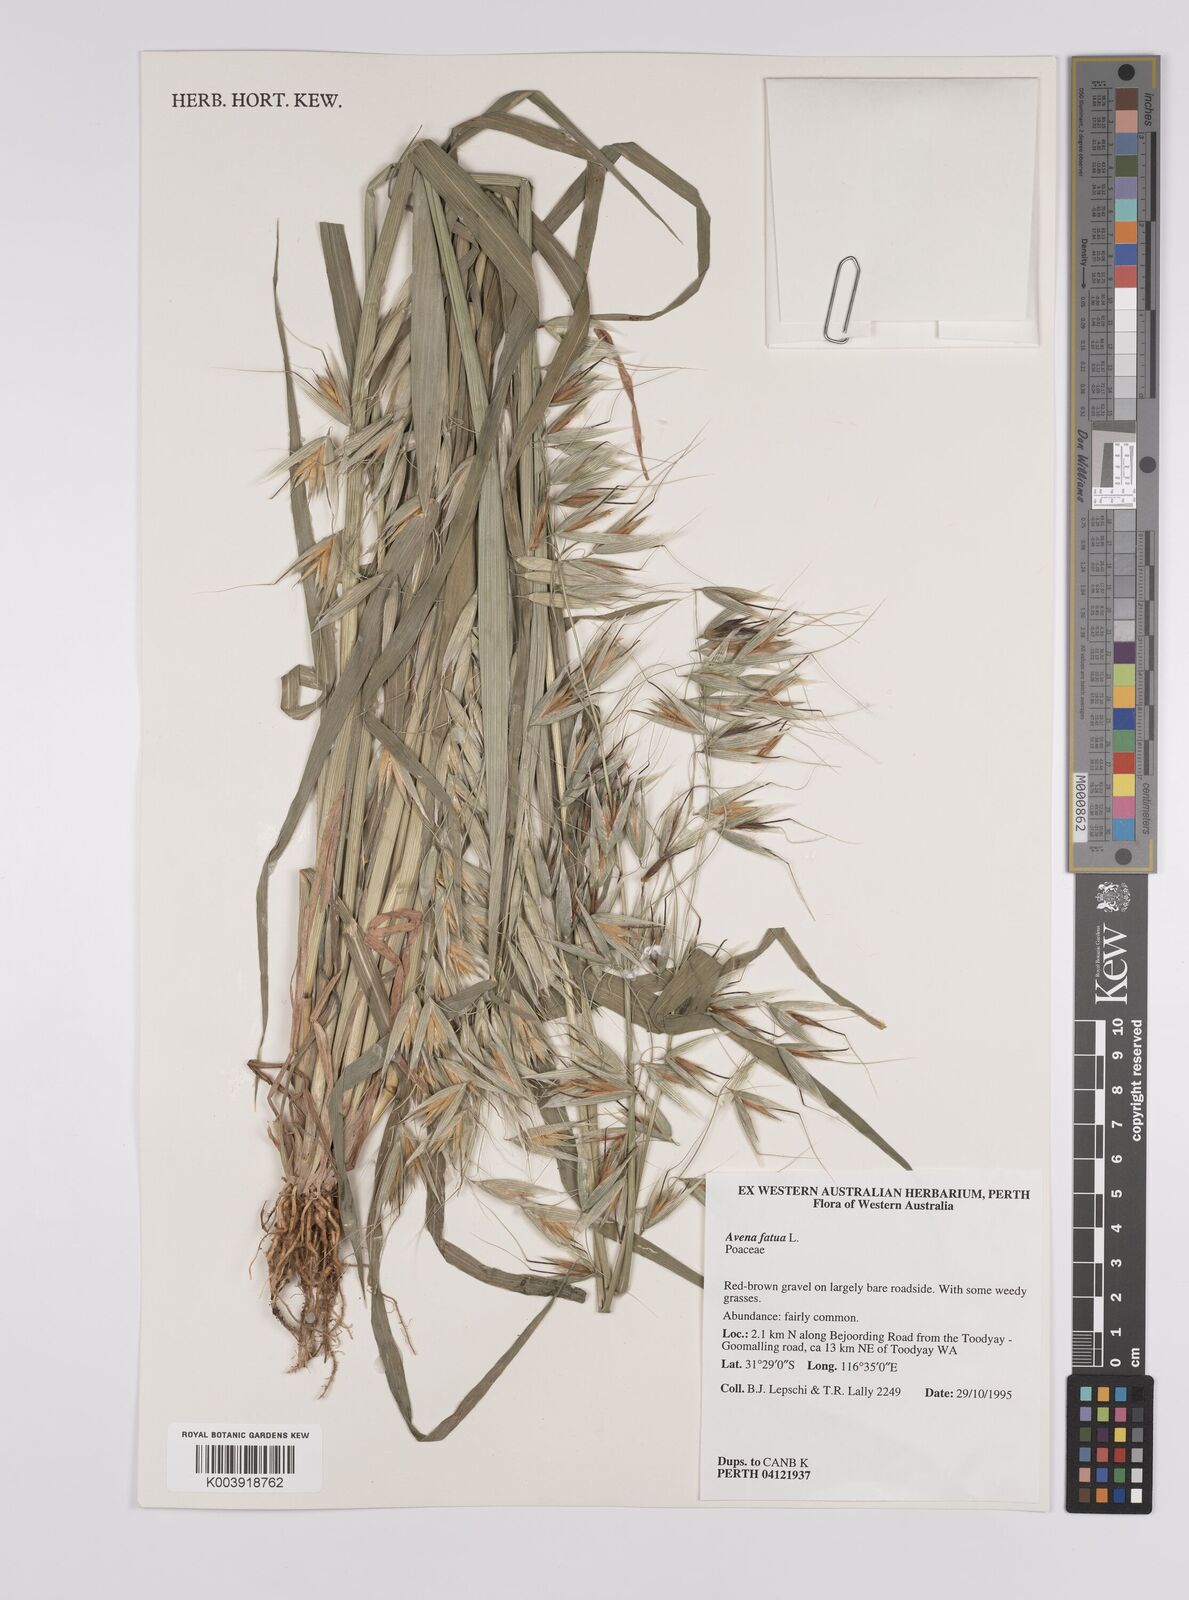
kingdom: Plantae
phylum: Tracheophyta
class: Liliopsida
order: Poales
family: Poaceae
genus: Avena
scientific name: Avena fatua
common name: Wild oat
